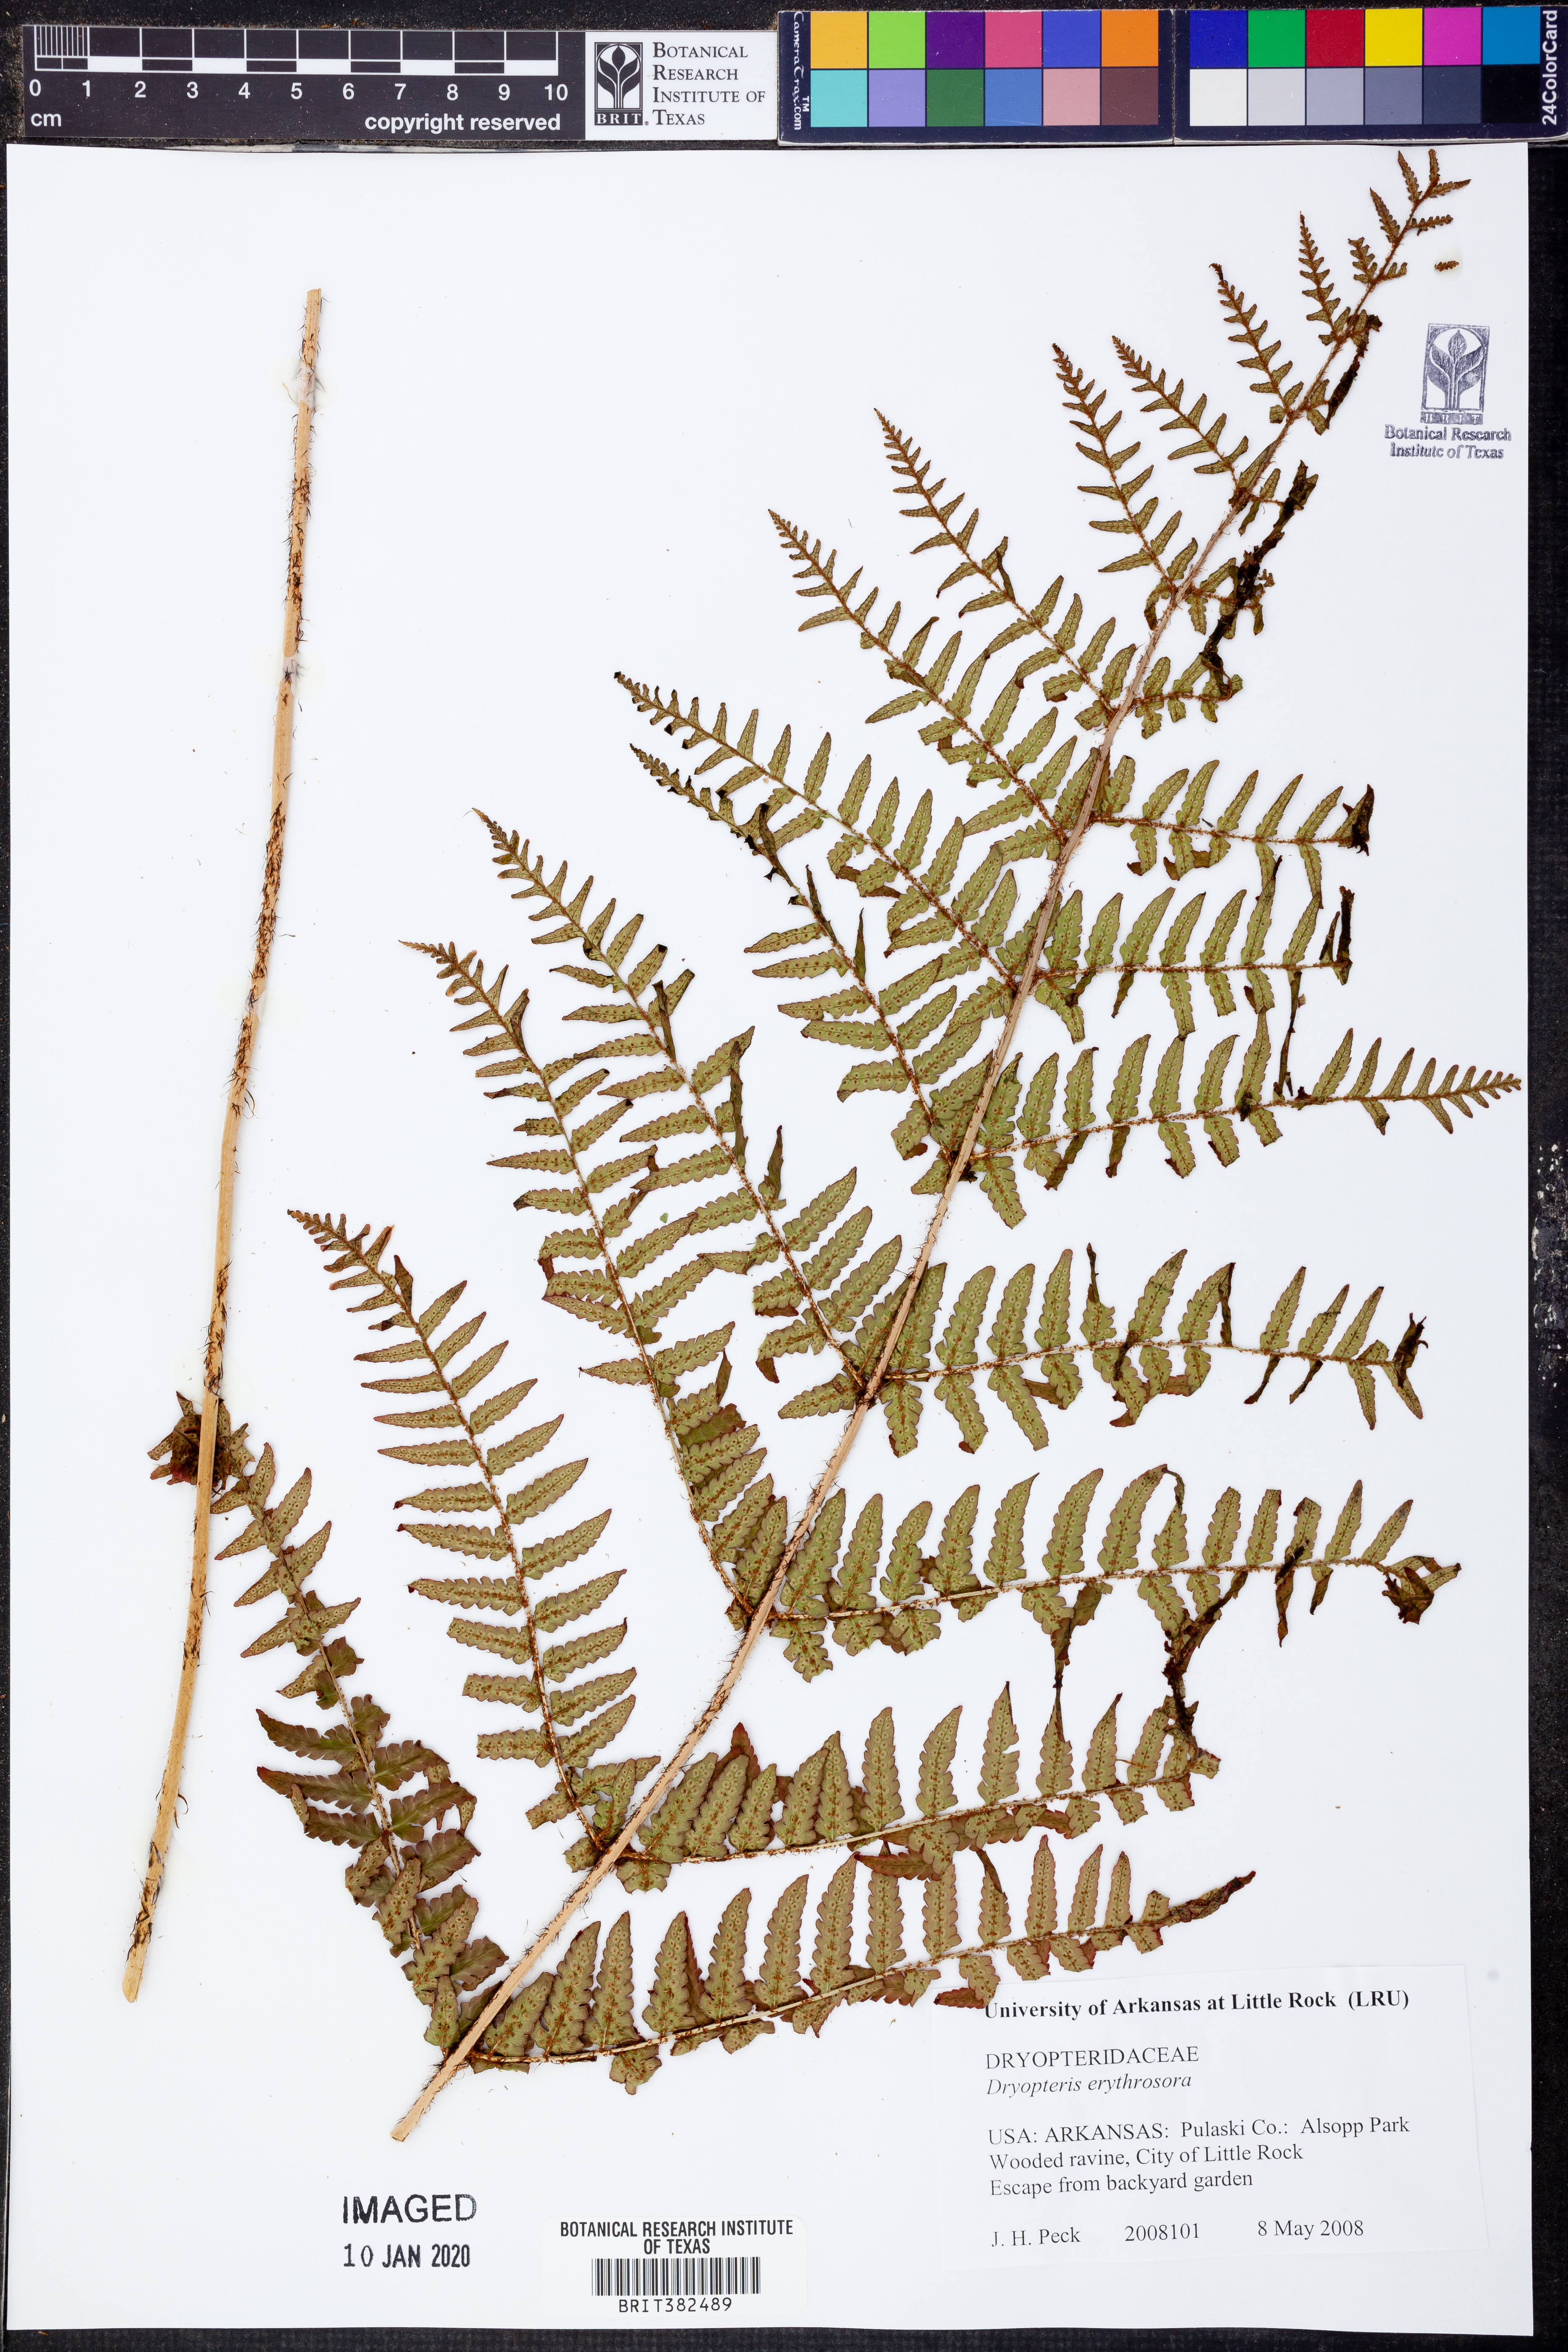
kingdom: Plantae
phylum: Tracheophyta
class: Polypodiopsida
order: Polypodiales
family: Dryopteridaceae
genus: Dryopteris
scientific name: Dryopteris erythrosora
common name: Autumn fern
